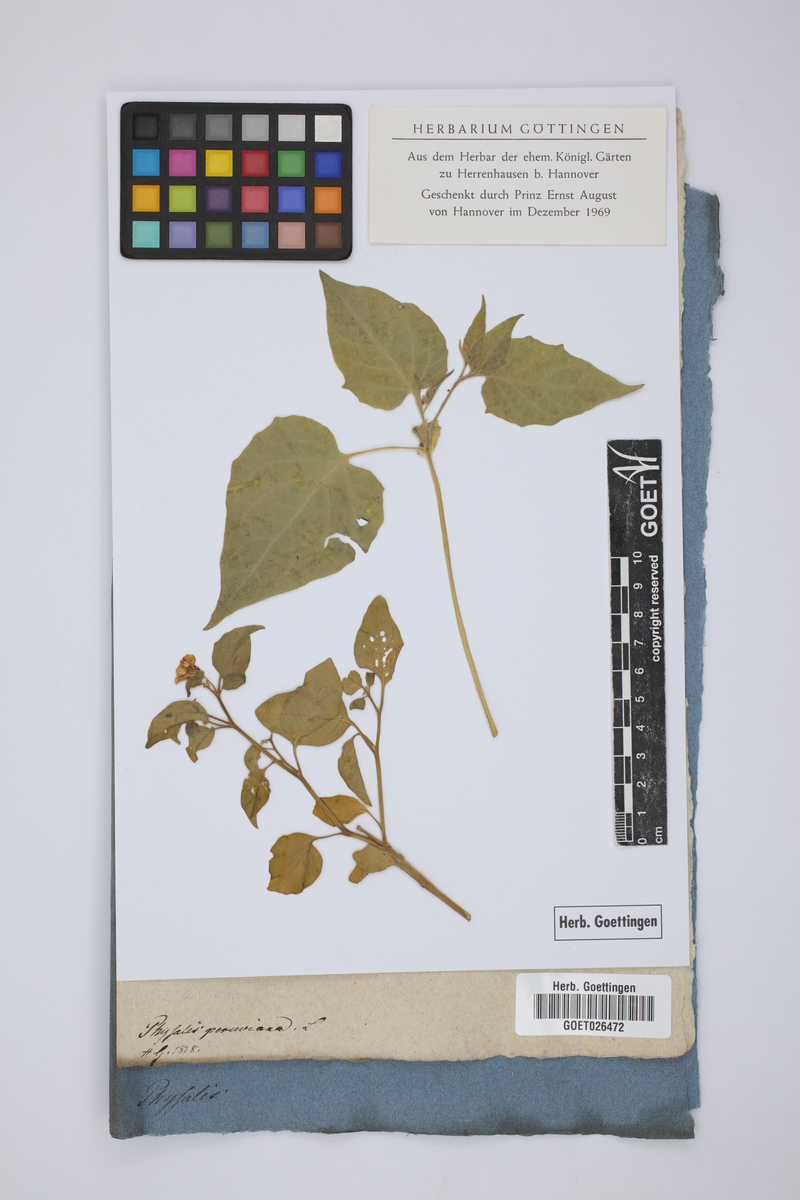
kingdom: Plantae
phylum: Tracheophyta
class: Magnoliopsida
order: Solanales
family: Solanaceae
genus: Physalis
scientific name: Physalis peruviana
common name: Cape-gooseberry
